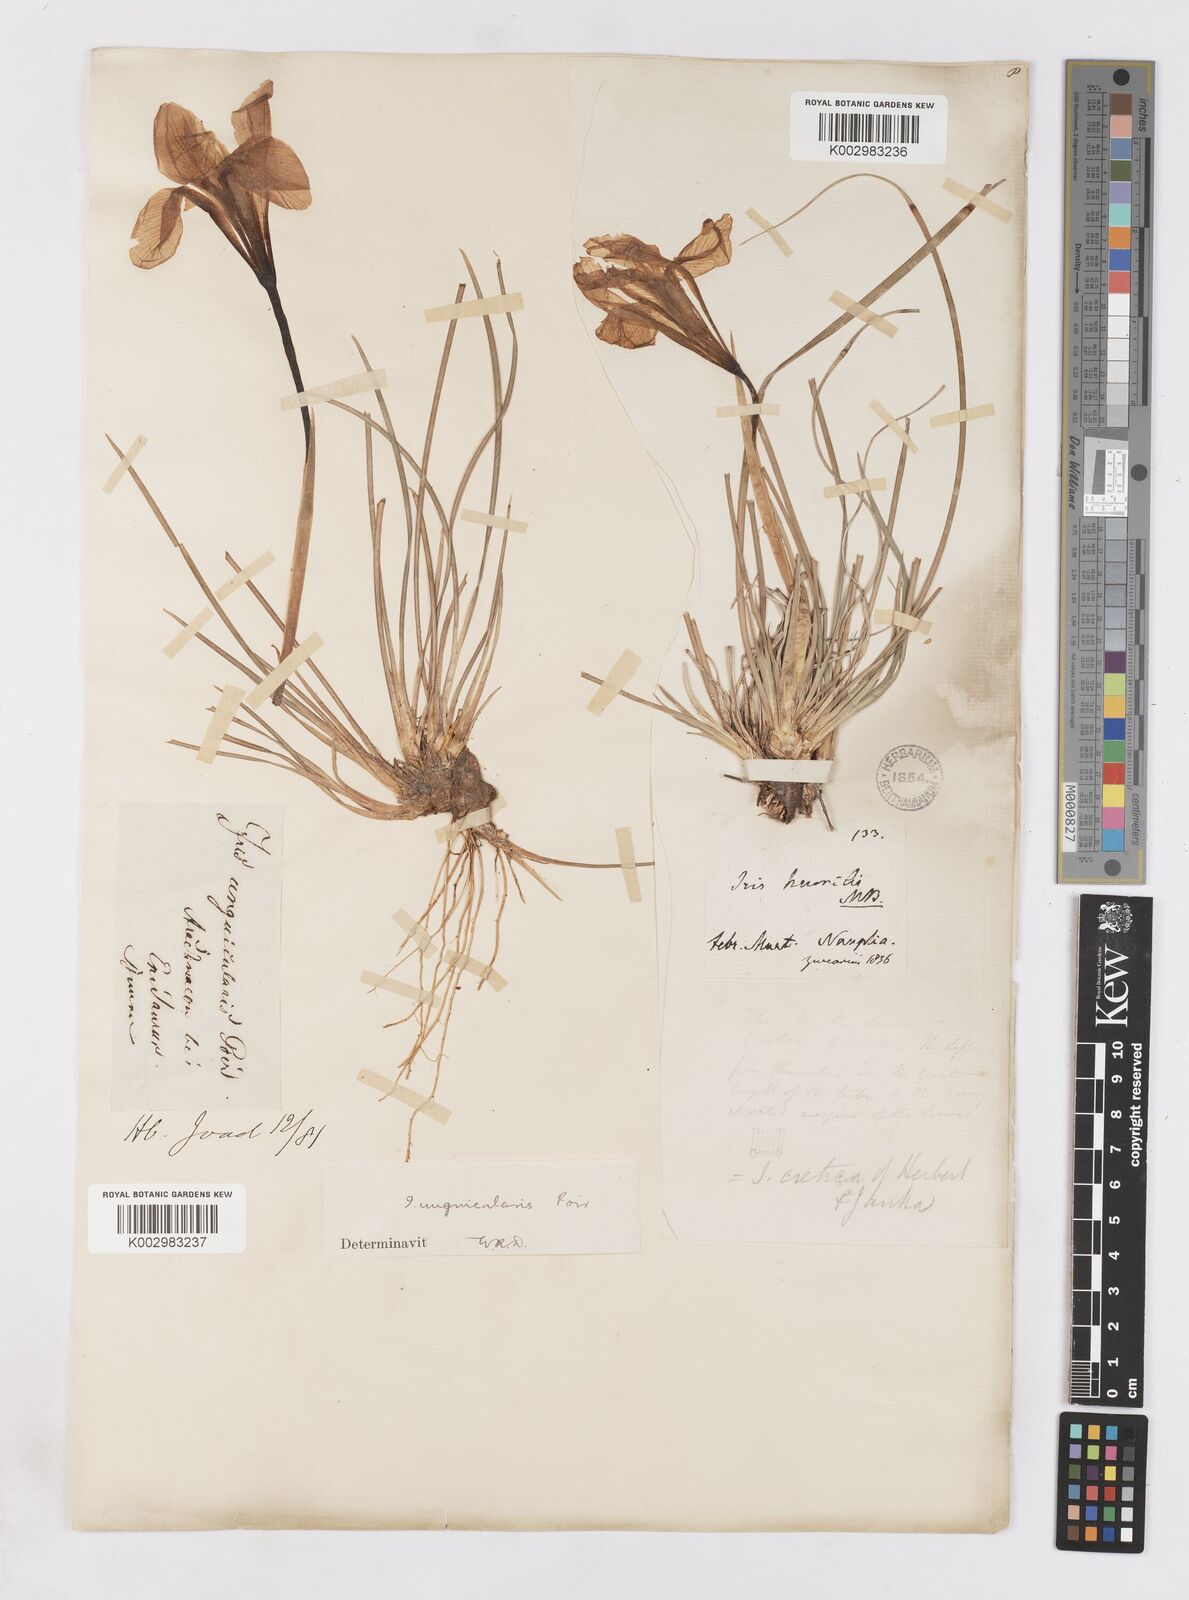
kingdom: Plantae
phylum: Tracheophyta
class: Liliopsida
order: Asparagales
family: Iridaceae
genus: Iris
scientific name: Iris unguicularis
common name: Algerian iris
